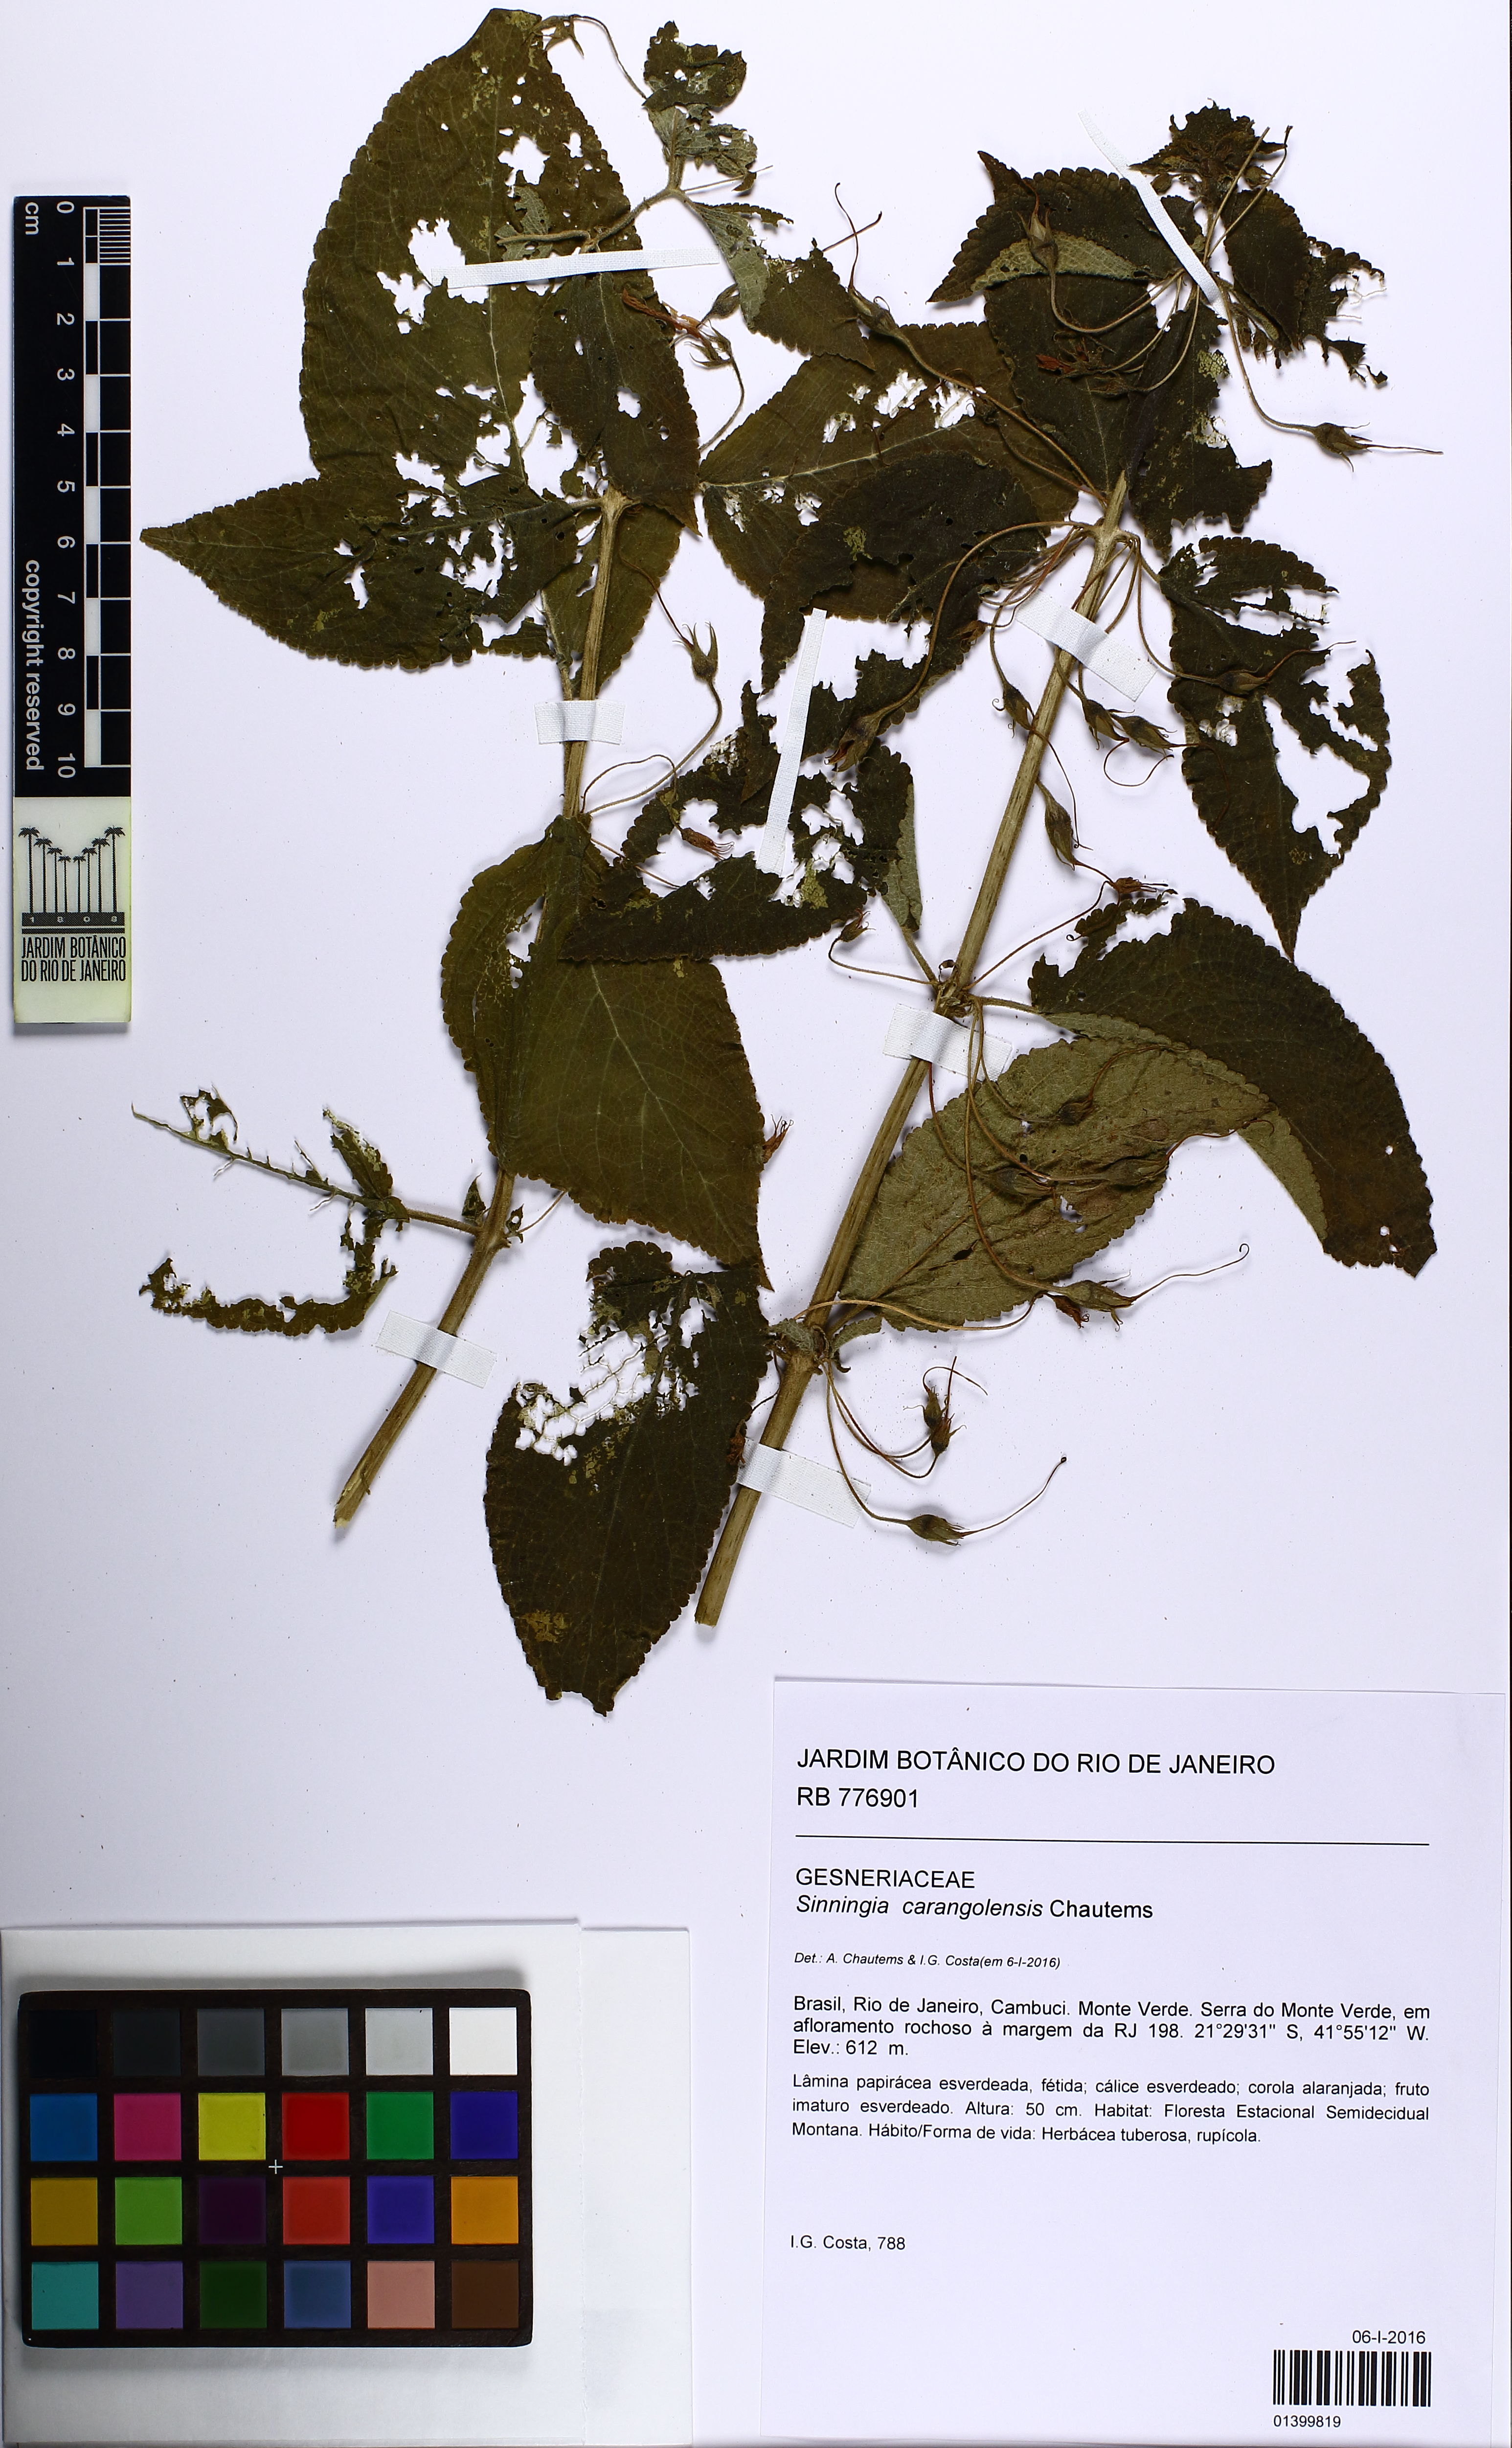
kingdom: Plantae
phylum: Tracheophyta
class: Magnoliopsida
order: Lamiales
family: Gesneriaceae
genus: Sinningia
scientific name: Sinningia carangolensis
